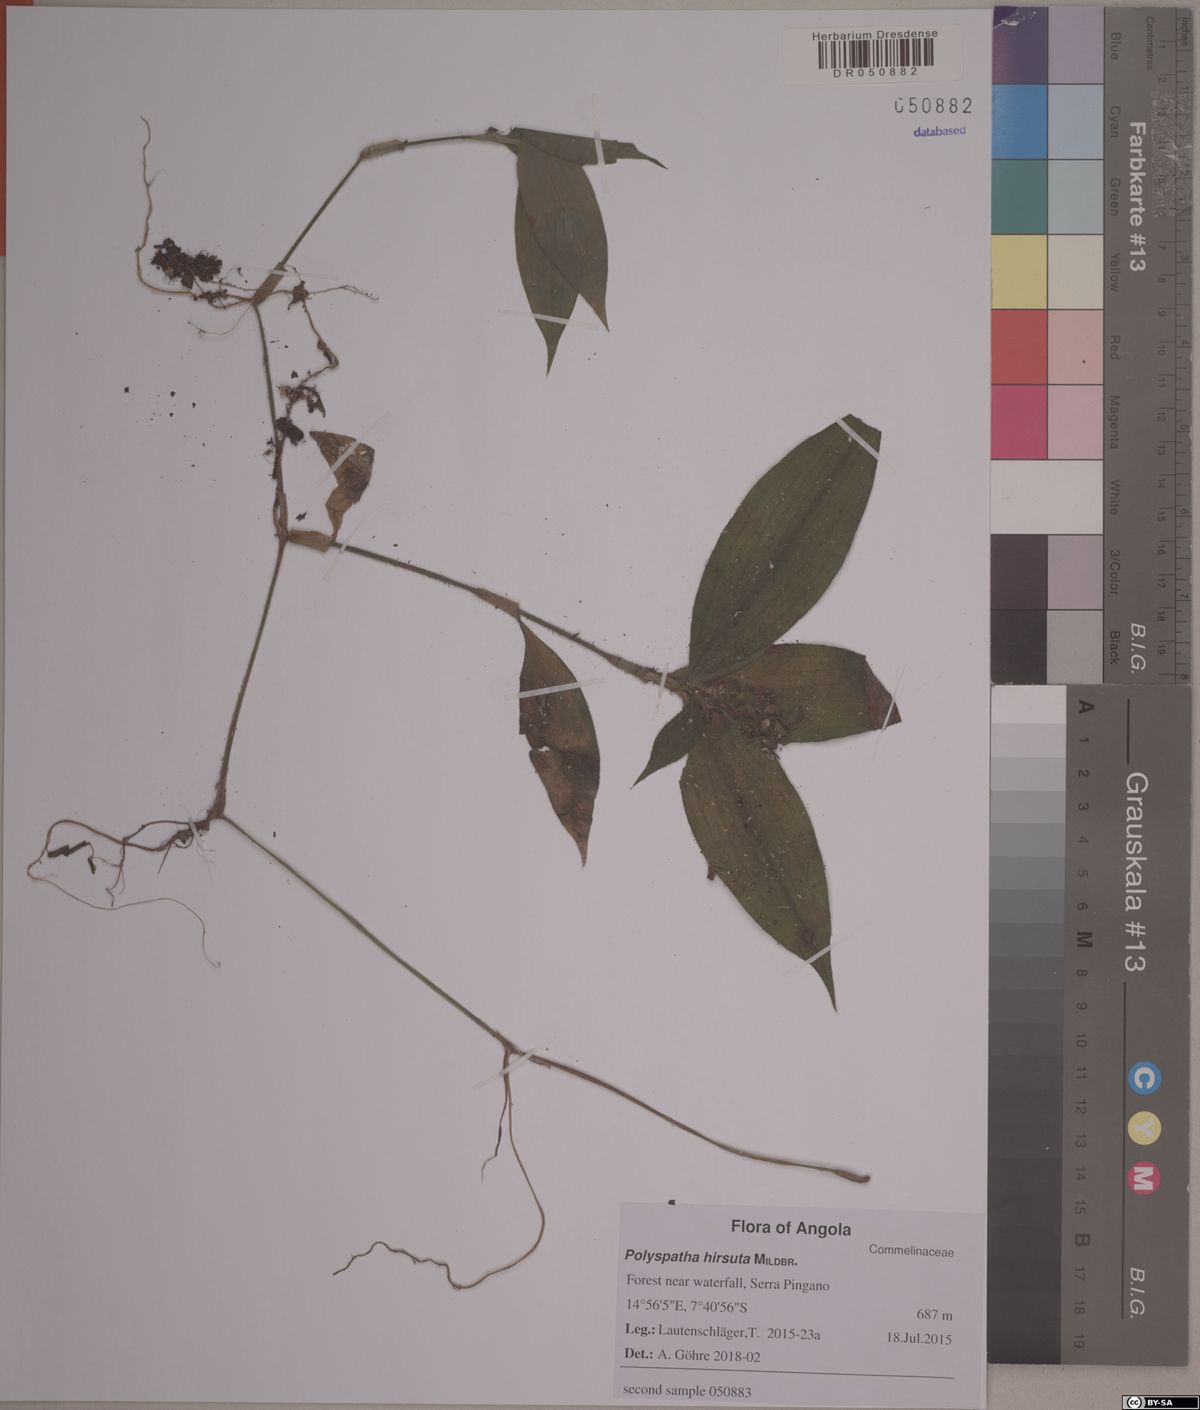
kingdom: Plantae
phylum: Tracheophyta
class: Liliopsida
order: Commelinales
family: Commelinaceae
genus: Polyspatha
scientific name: Polyspatha hirsuta
